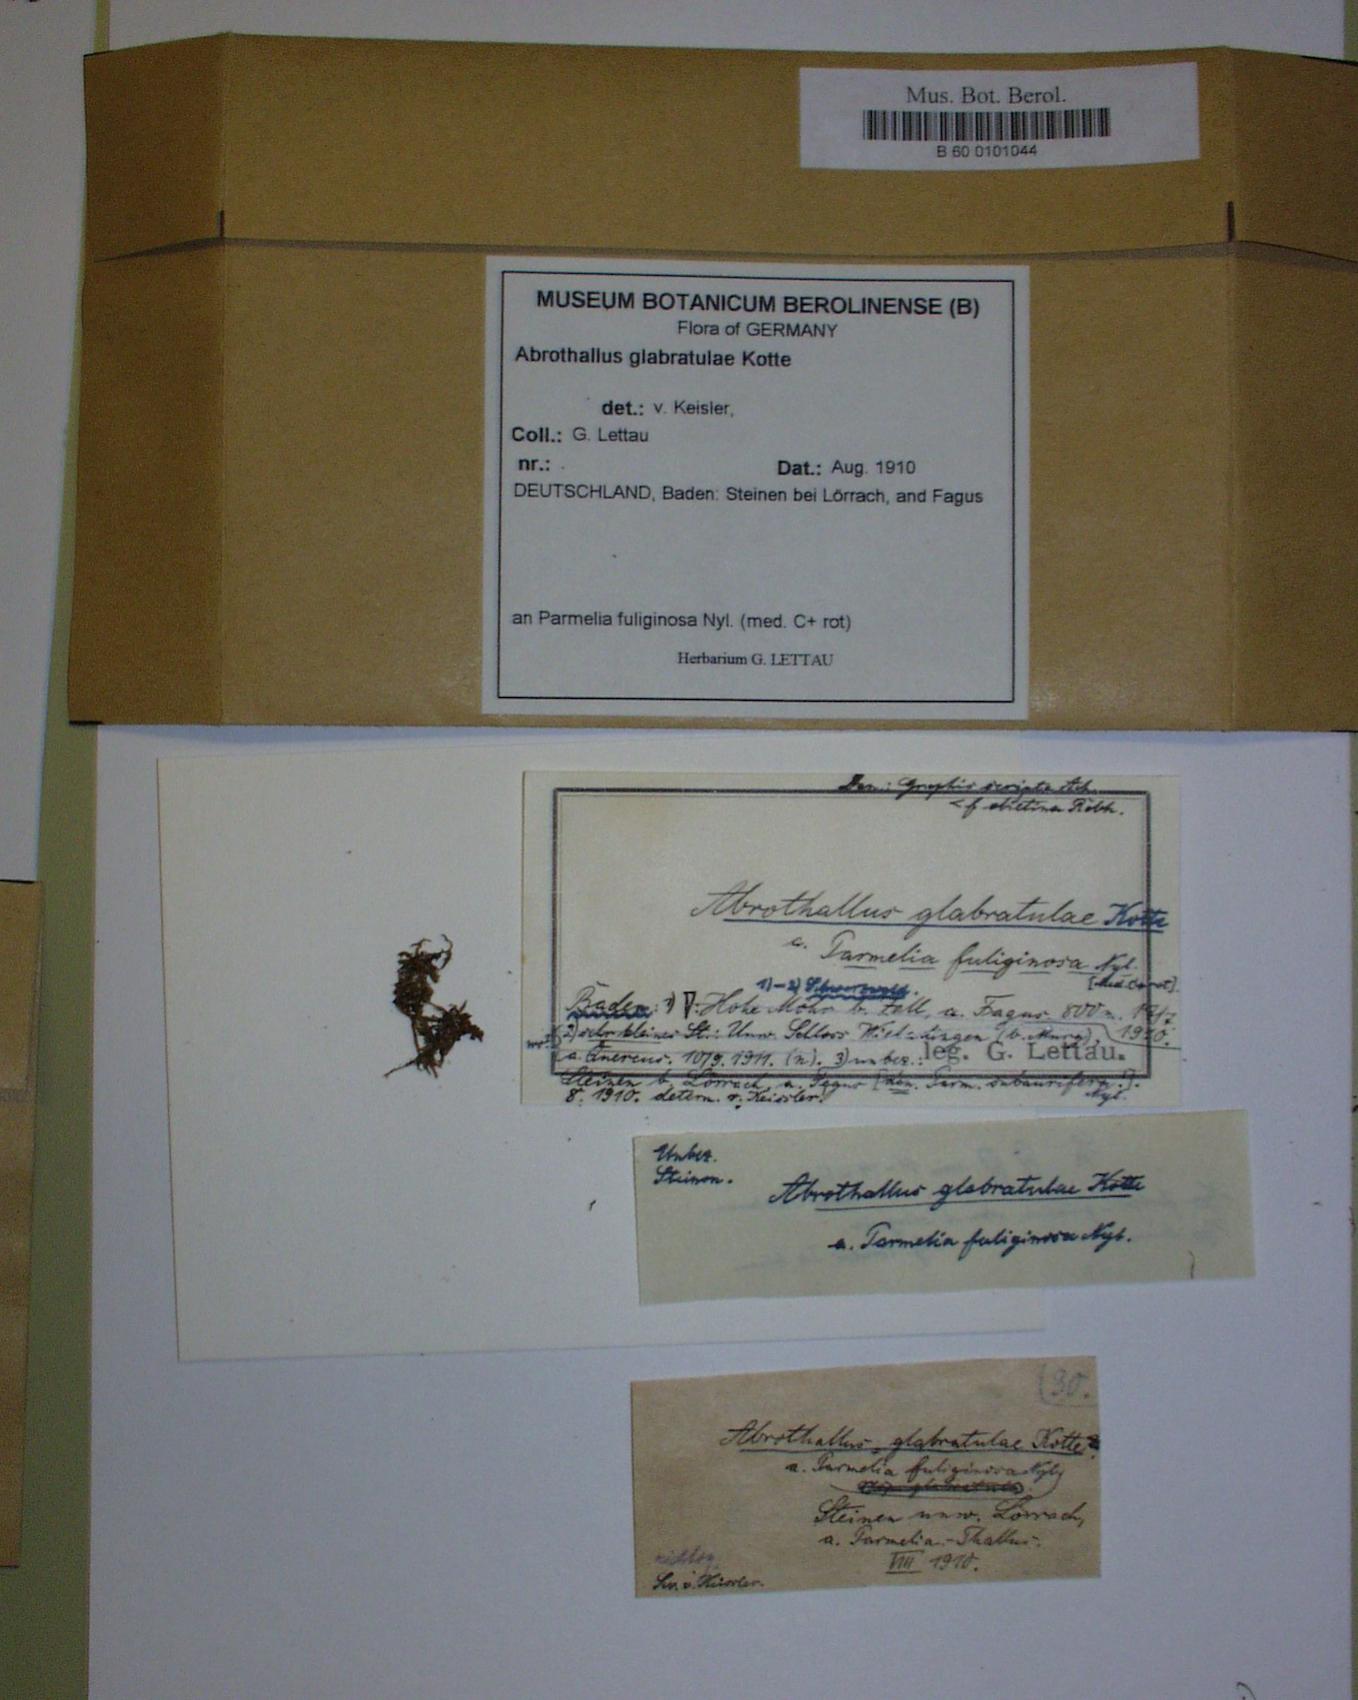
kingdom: Fungi
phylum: Ascomycota
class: Dothideomycetes
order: Abrothallales
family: Abrothallaceae
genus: Abrothallus
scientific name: Abrothallus parmeliarum
